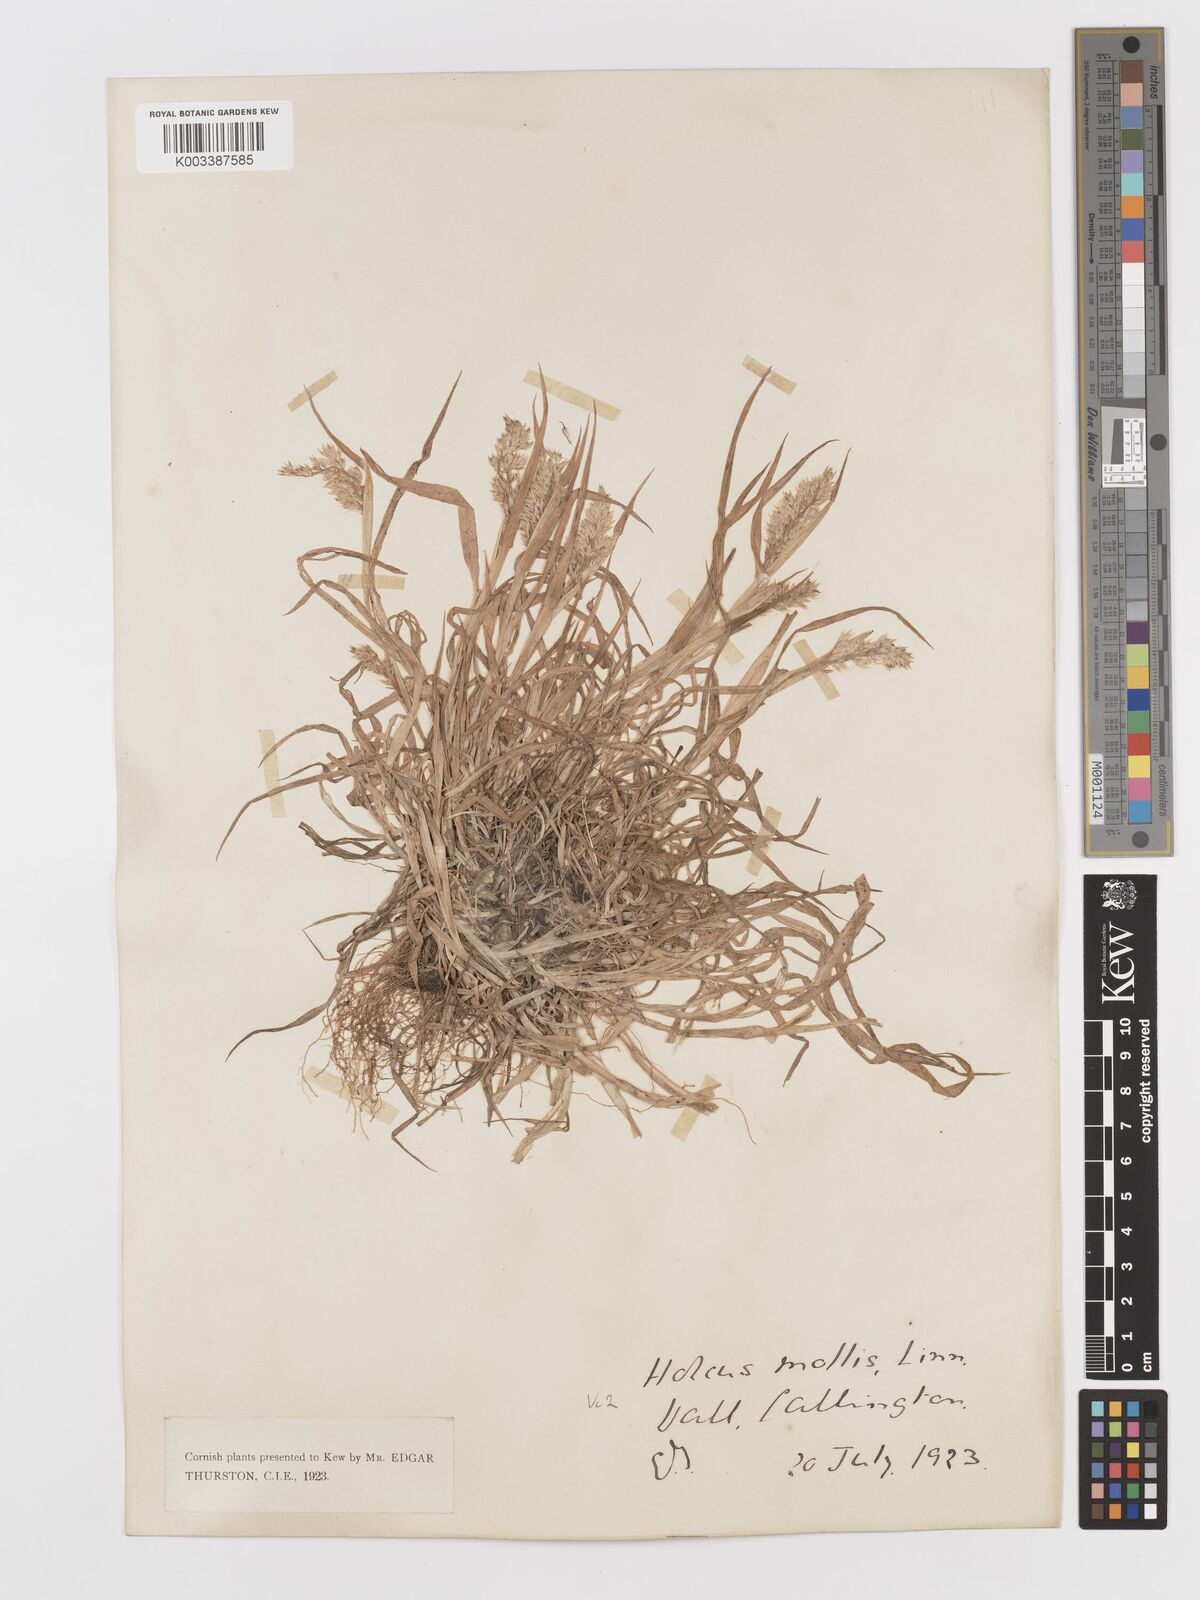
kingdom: Plantae
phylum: Tracheophyta
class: Liliopsida
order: Poales
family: Poaceae
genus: Holcus
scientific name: Holcus lanatus
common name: Yorkshire-fog
